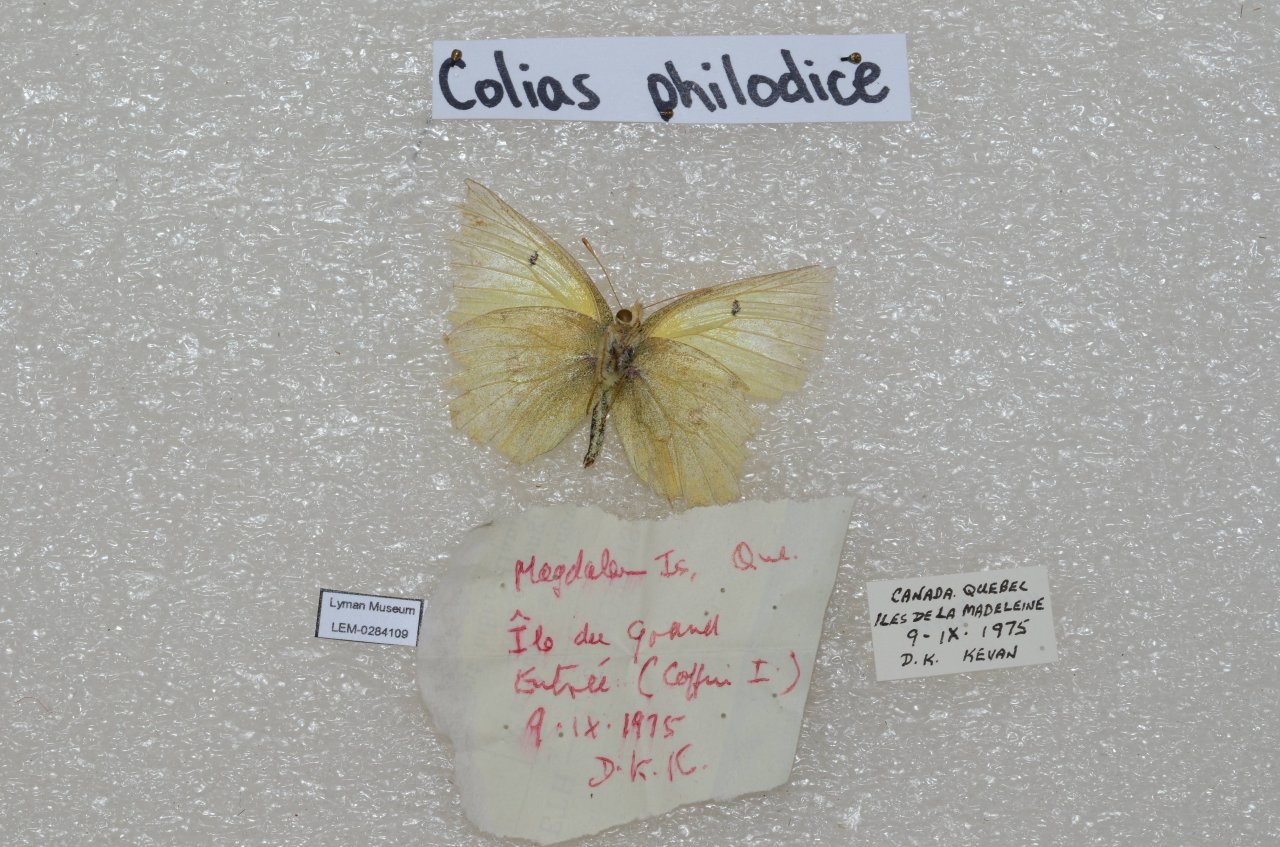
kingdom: Animalia
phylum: Arthropoda
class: Insecta
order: Lepidoptera
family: Pieridae
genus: Colias
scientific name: Colias interior
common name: Pink-edged Sulphur
